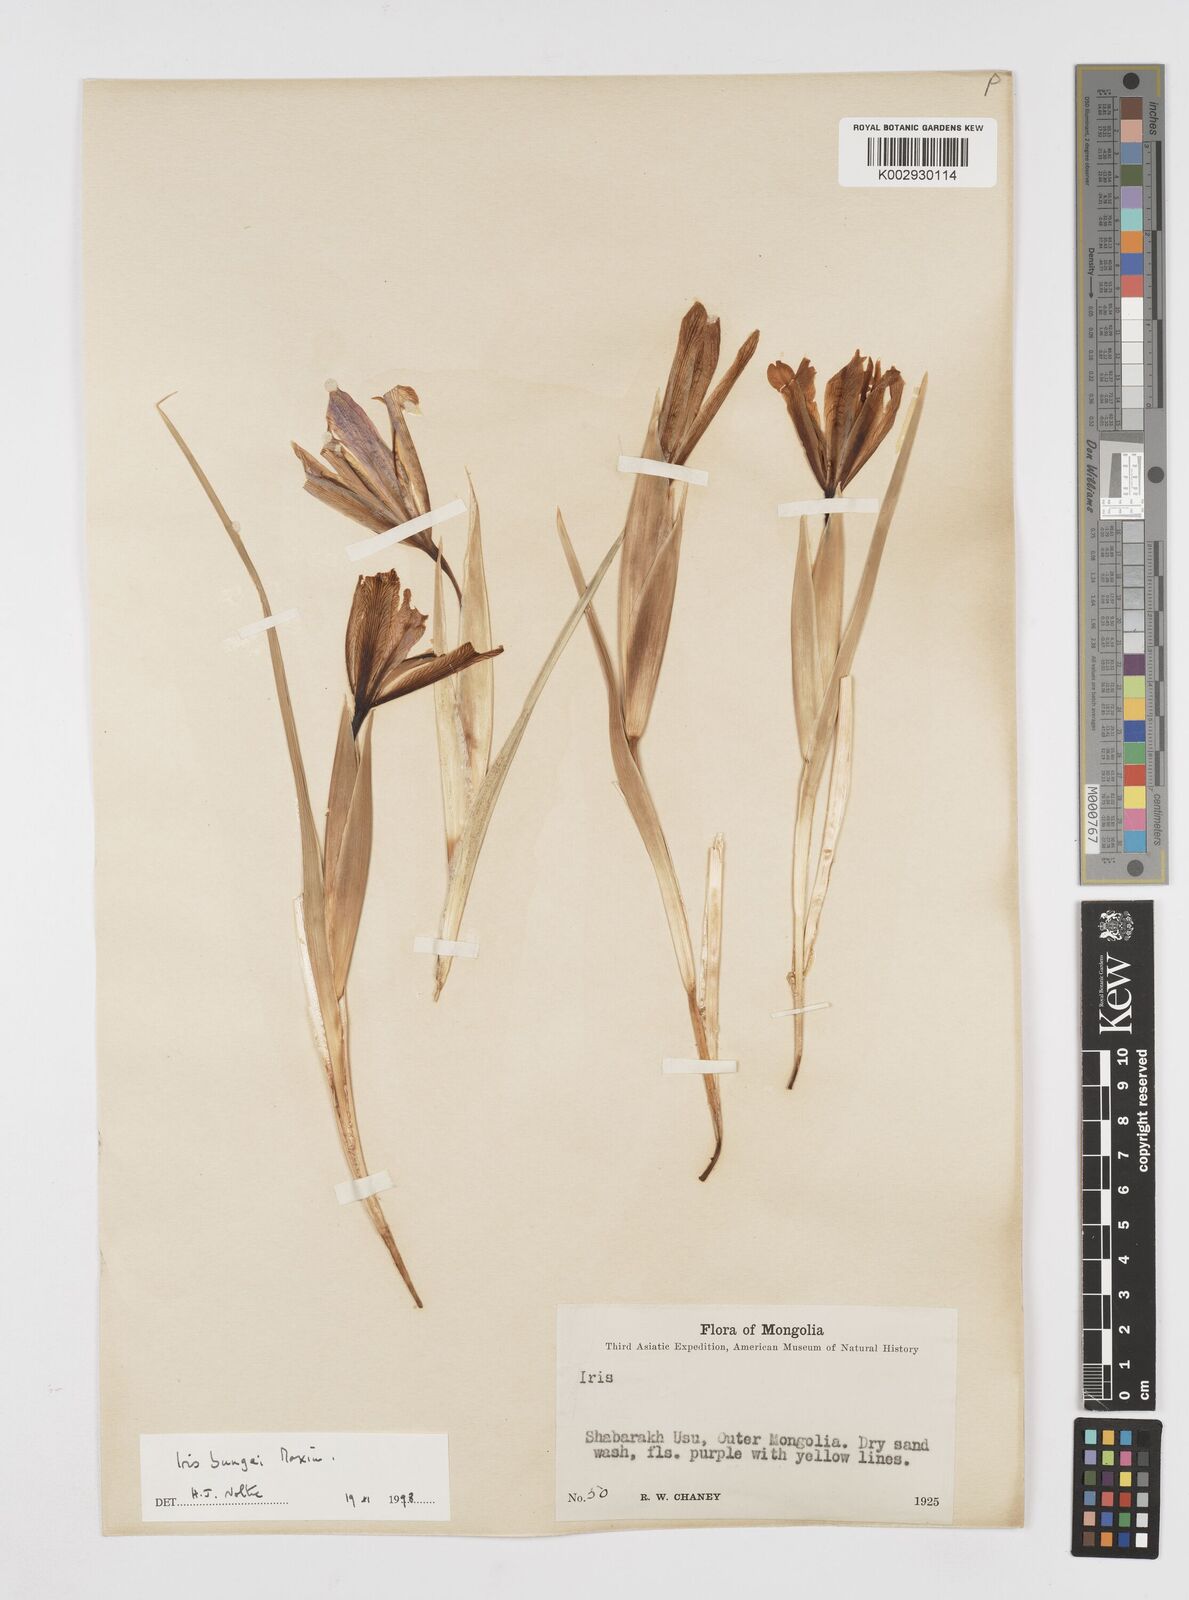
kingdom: Plantae
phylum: Tracheophyta
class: Liliopsida
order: Asparagales
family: Iridaceae
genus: Iris
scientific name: Iris bungei
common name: Large-bract iris
